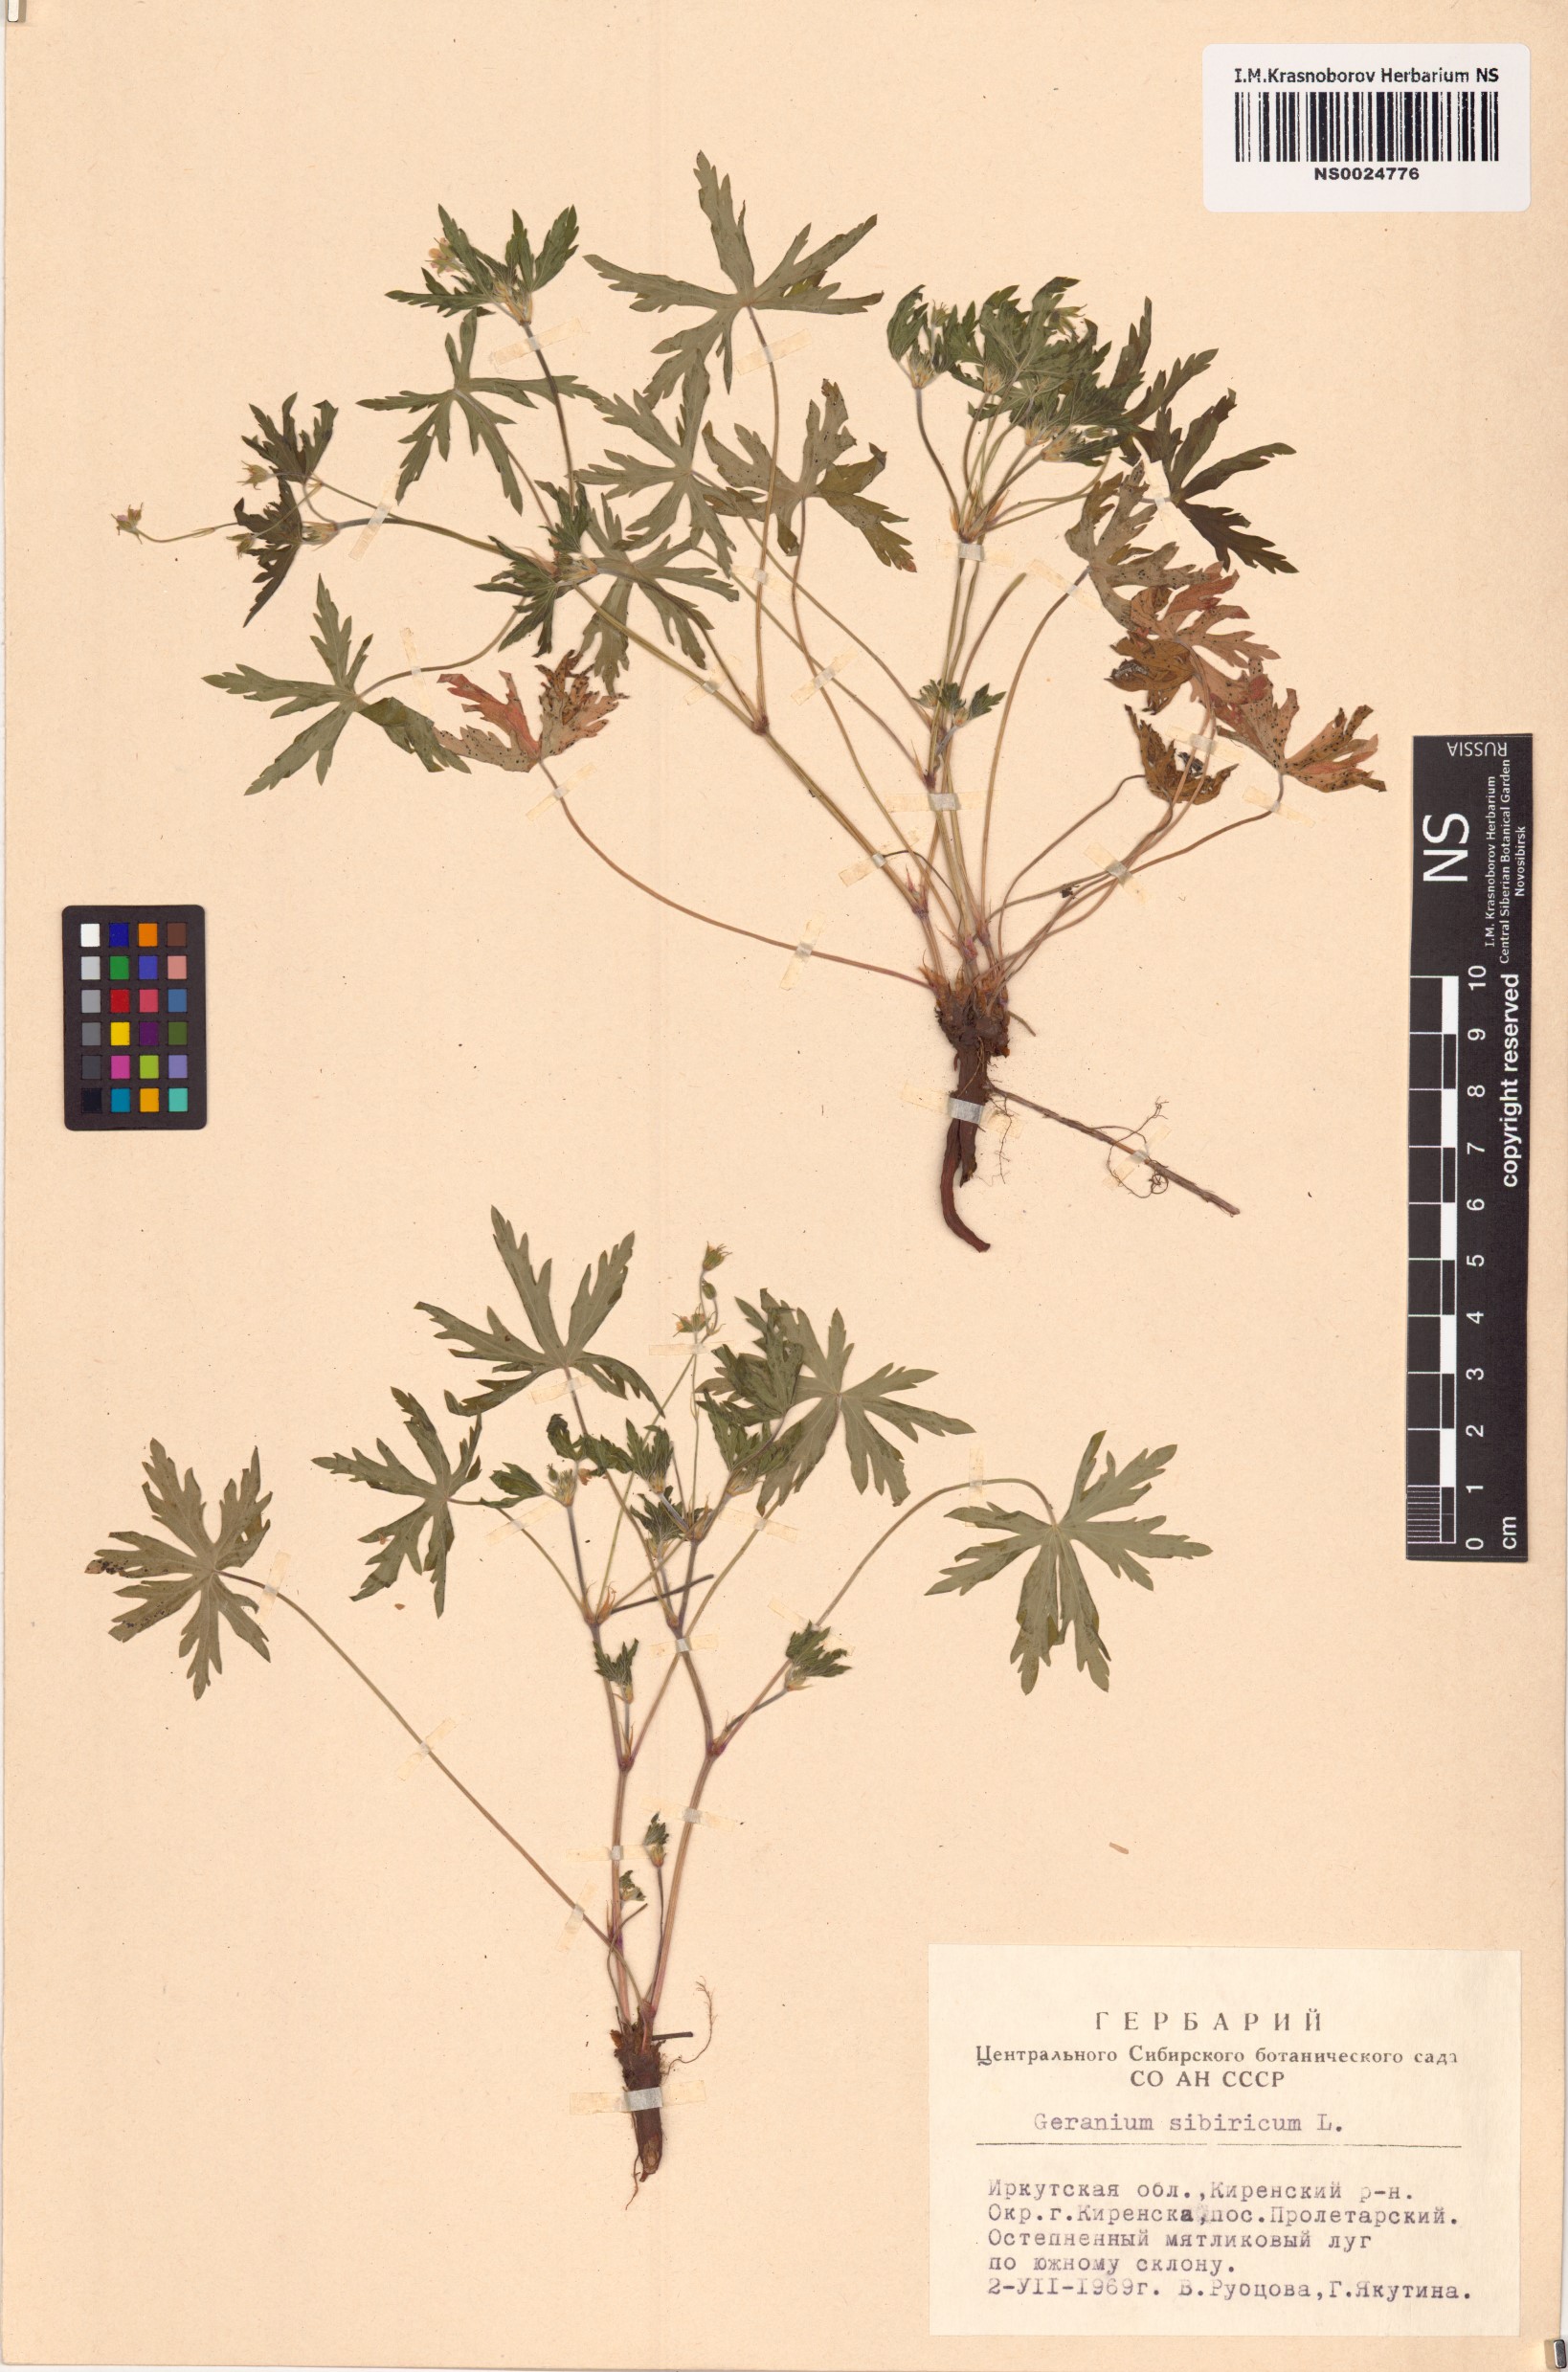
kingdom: Plantae
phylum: Tracheophyta
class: Magnoliopsida
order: Geraniales
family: Geraniaceae
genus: Geranium
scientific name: Geranium sibiricum
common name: Siberian crane's-bill
